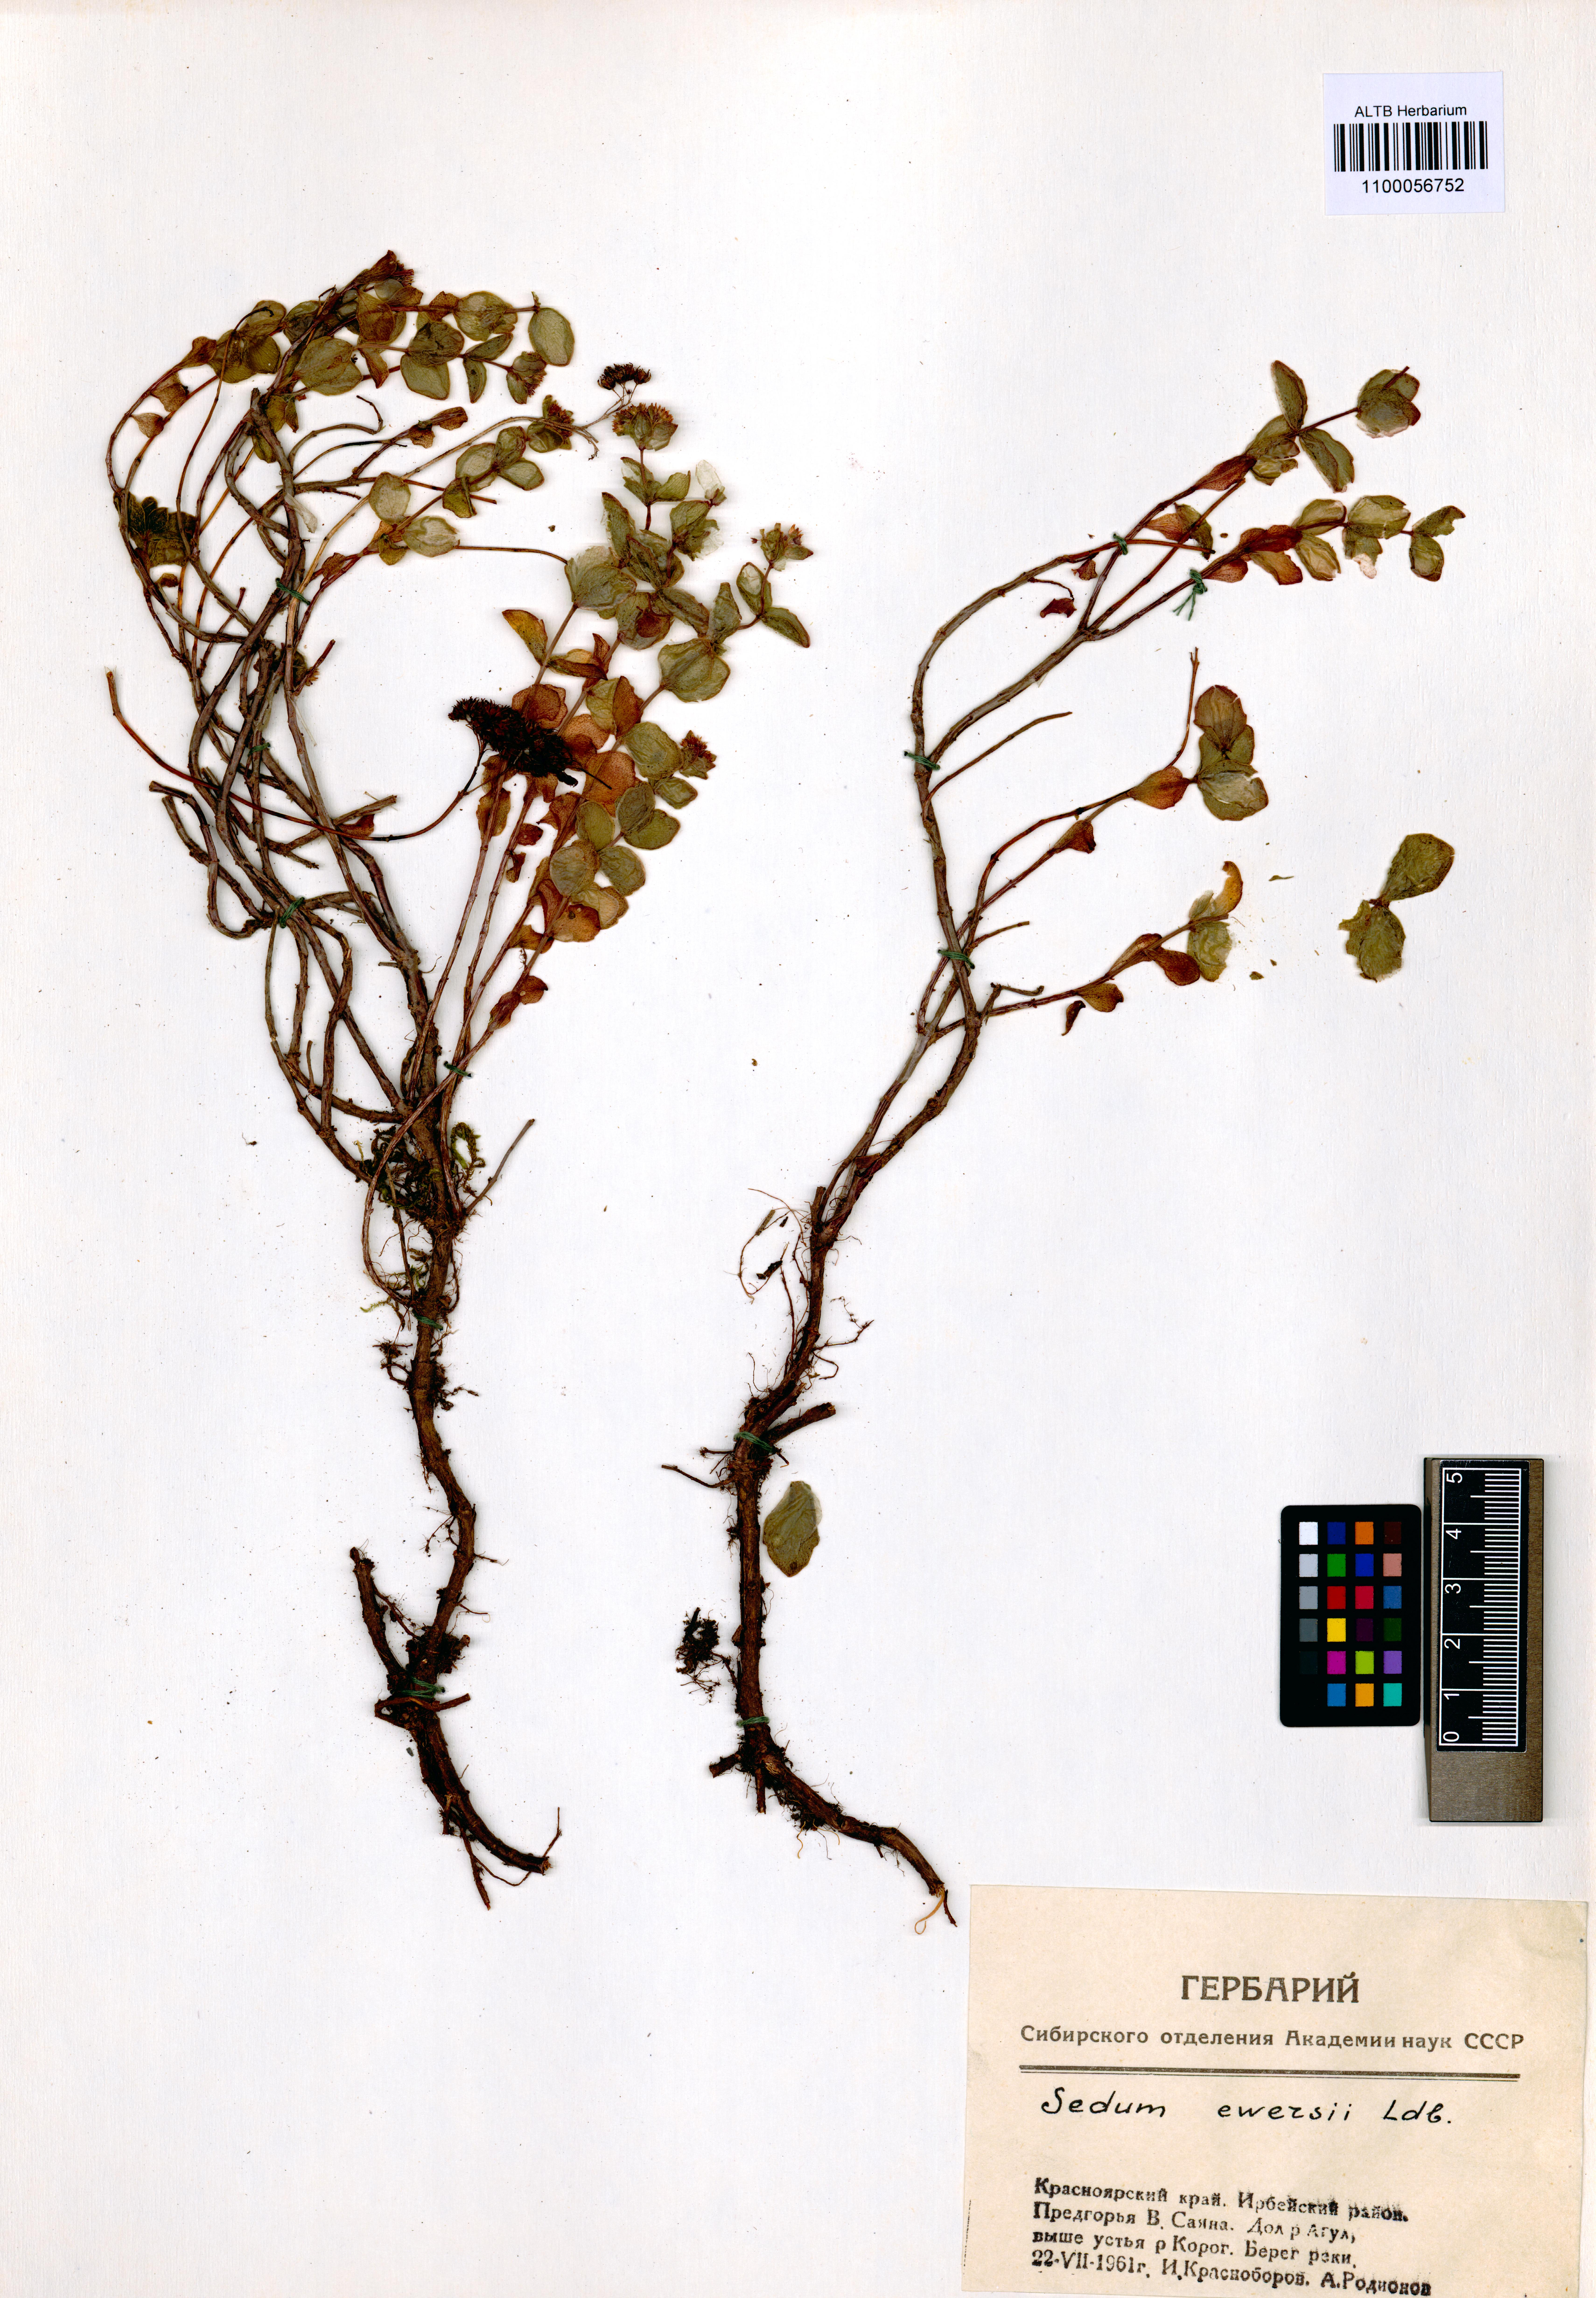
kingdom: Plantae
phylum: Tracheophyta
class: Magnoliopsida
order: Saxifragales
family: Crassulaceae
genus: Hylotelephium
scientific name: Hylotelephium ewersii
